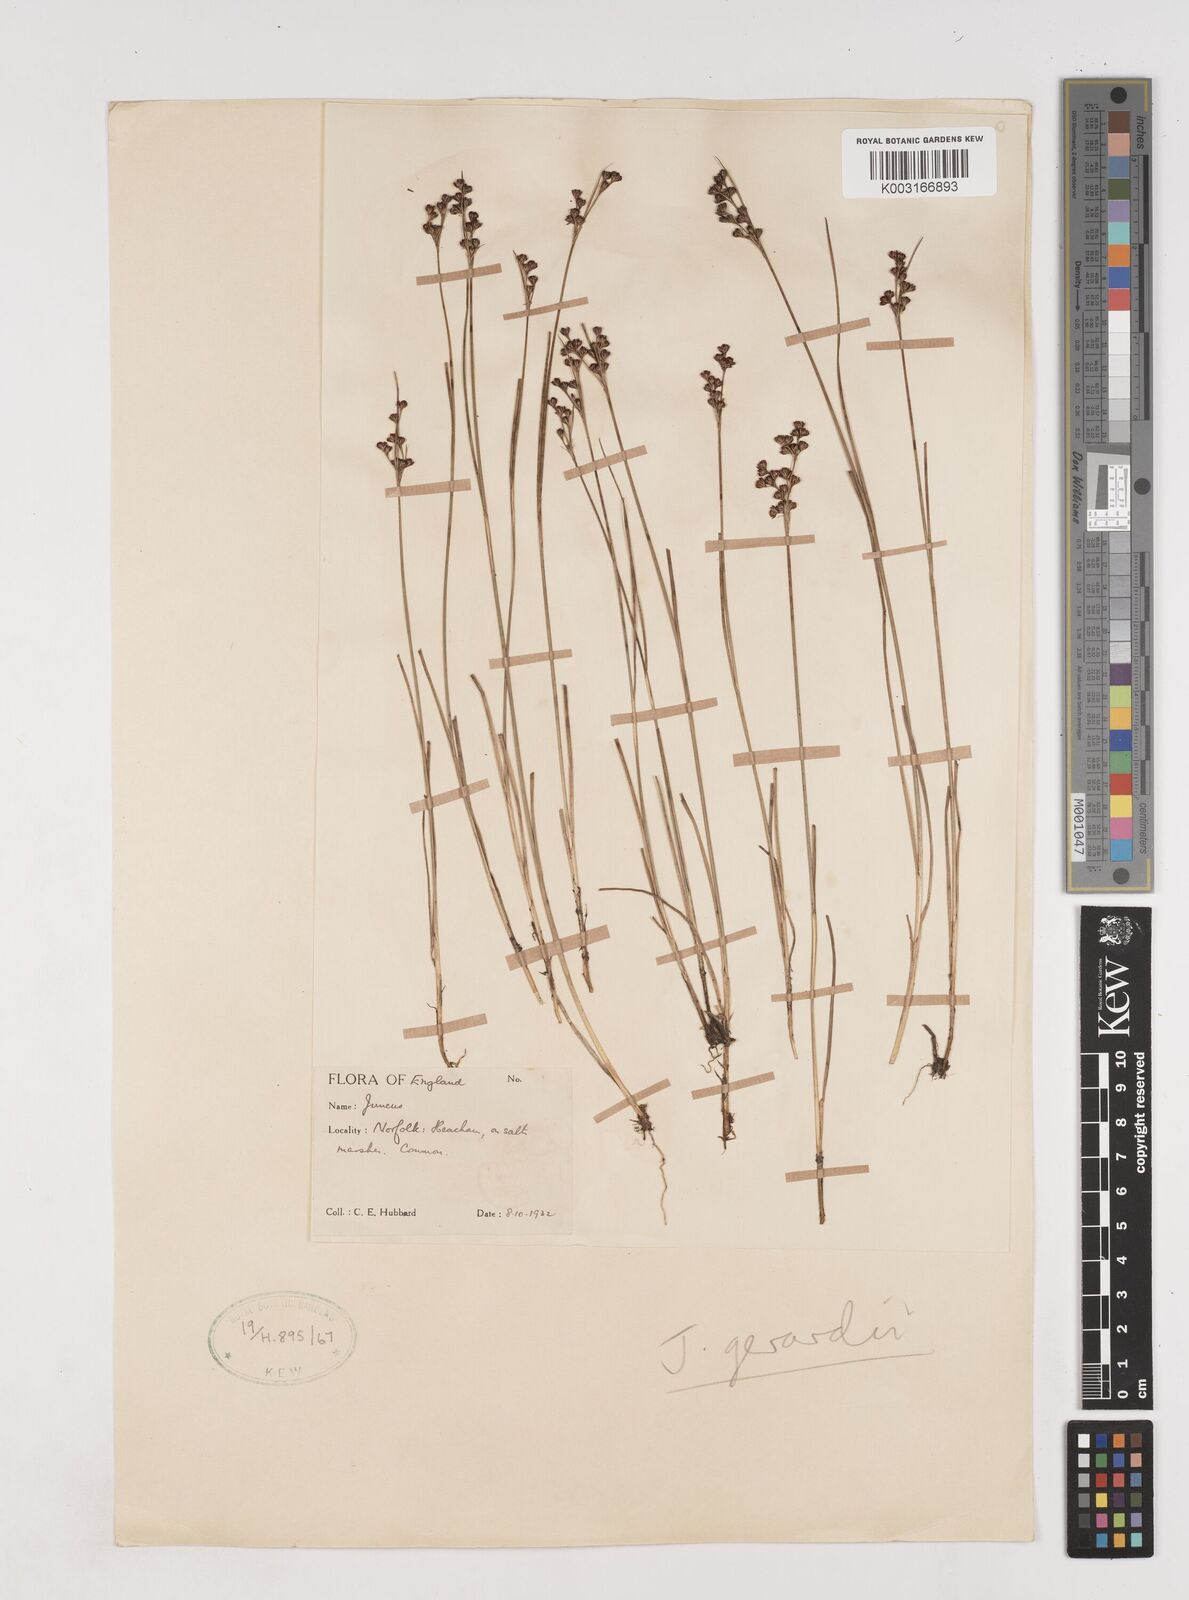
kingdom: Plantae
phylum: Tracheophyta
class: Liliopsida
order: Poales
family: Juncaceae
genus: Juncus
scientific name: Juncus gerardi
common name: Saltmarsh rush
